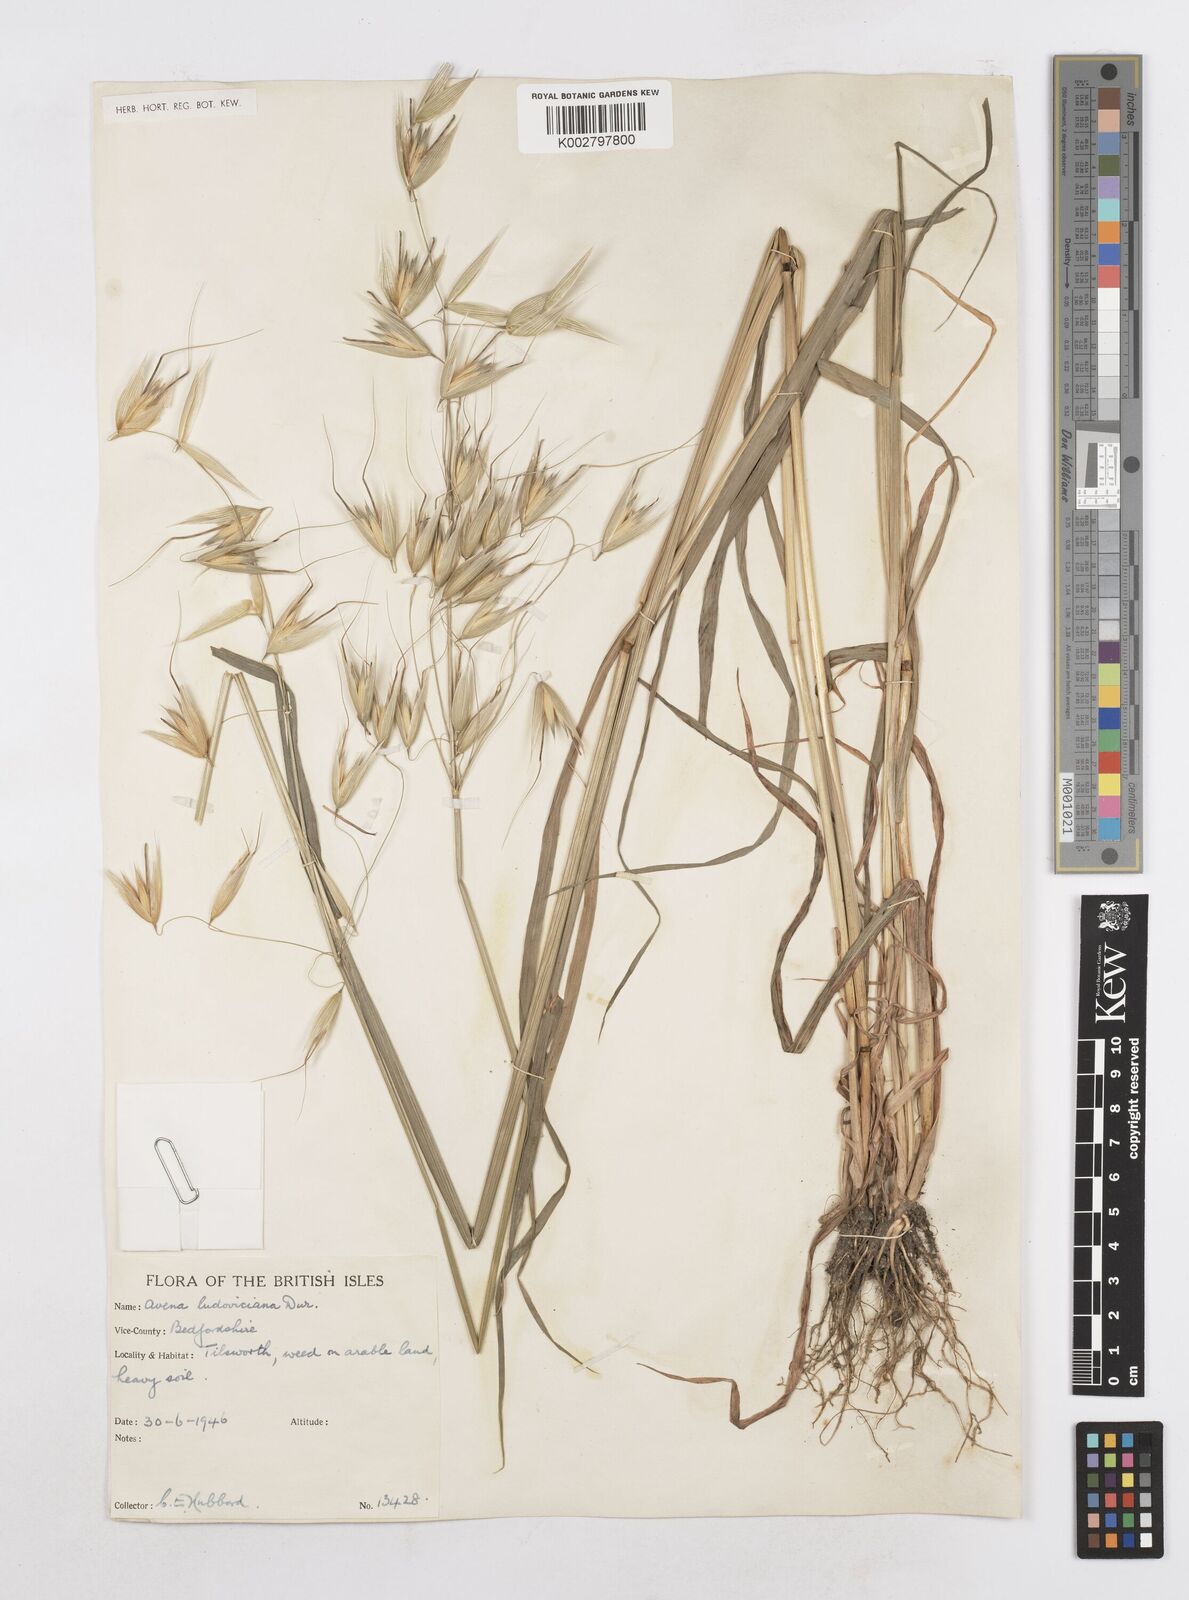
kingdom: Plantae
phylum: Tracheophyta
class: Liliopsida
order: Poales
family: Poaceae
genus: Avena
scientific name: Avena sterilis
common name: Animated oat
